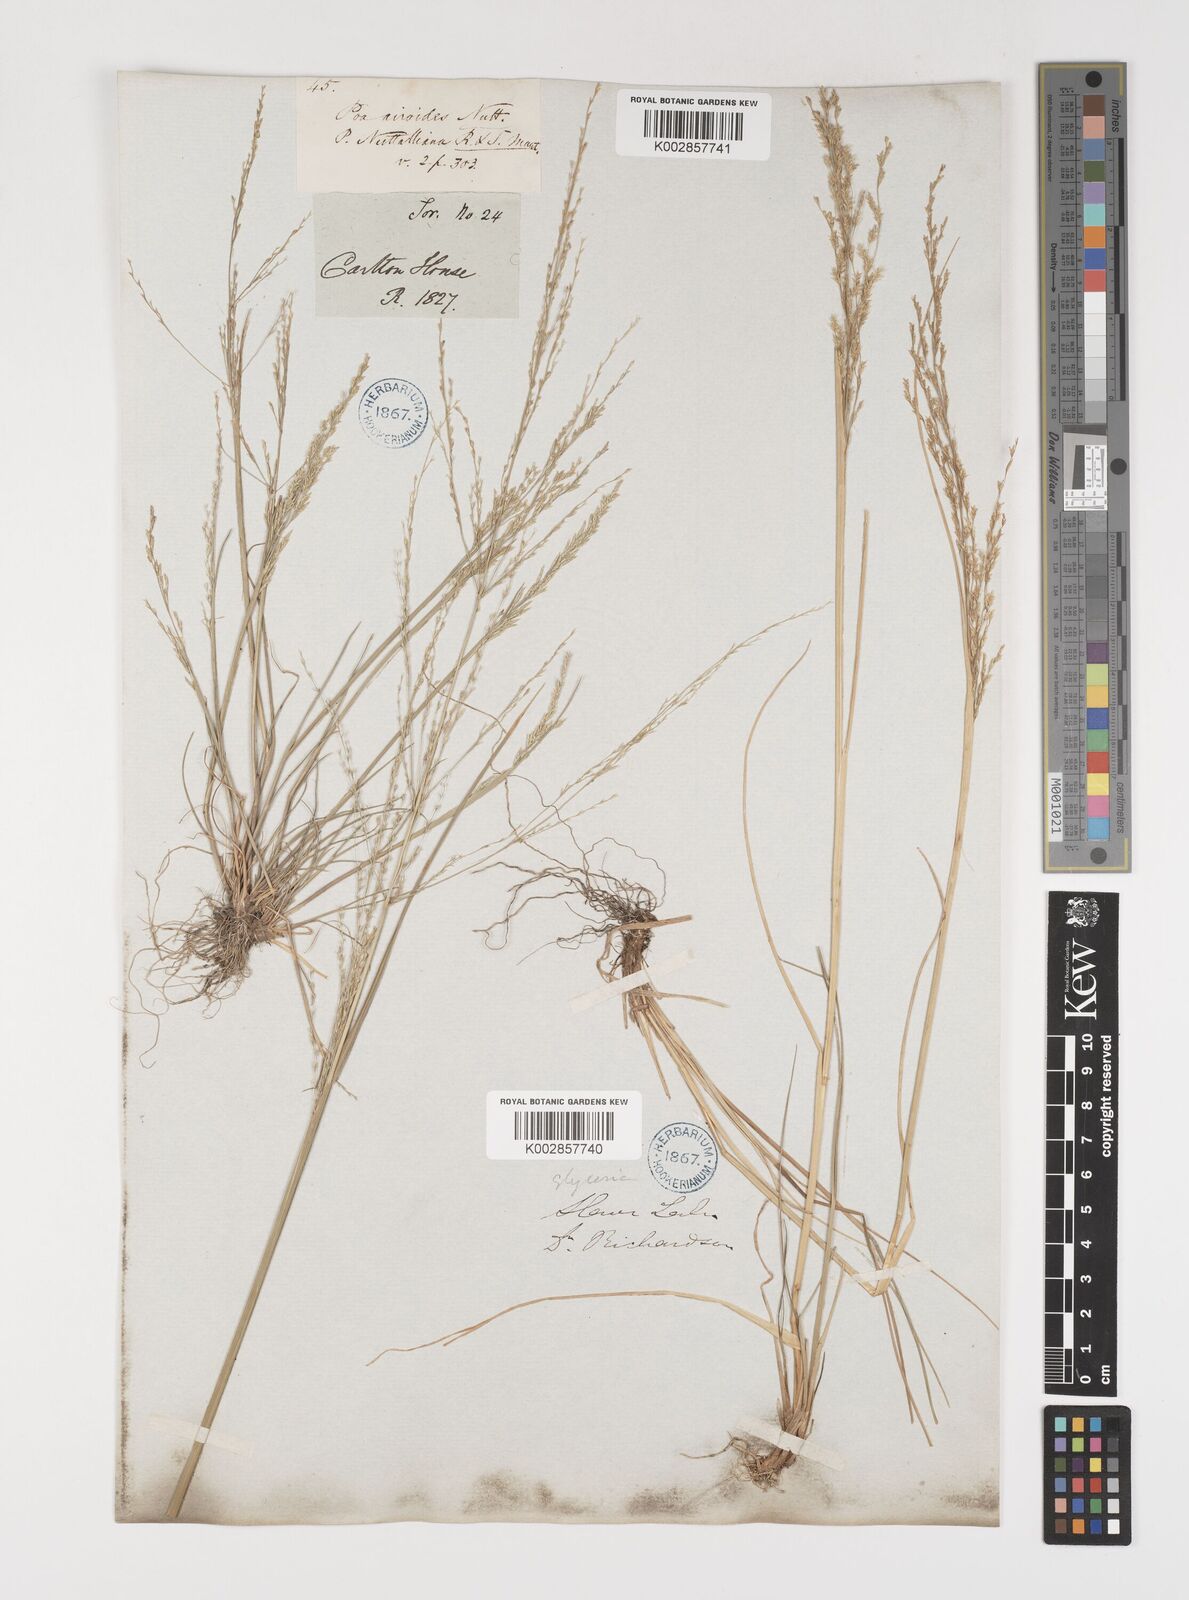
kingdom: Plantae
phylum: Tracheophyta
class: Liliopsida
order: Poales
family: Poaceae
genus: Puccinellia
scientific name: Puccinellia nuttalliana
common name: Nuttall's alkali grass
